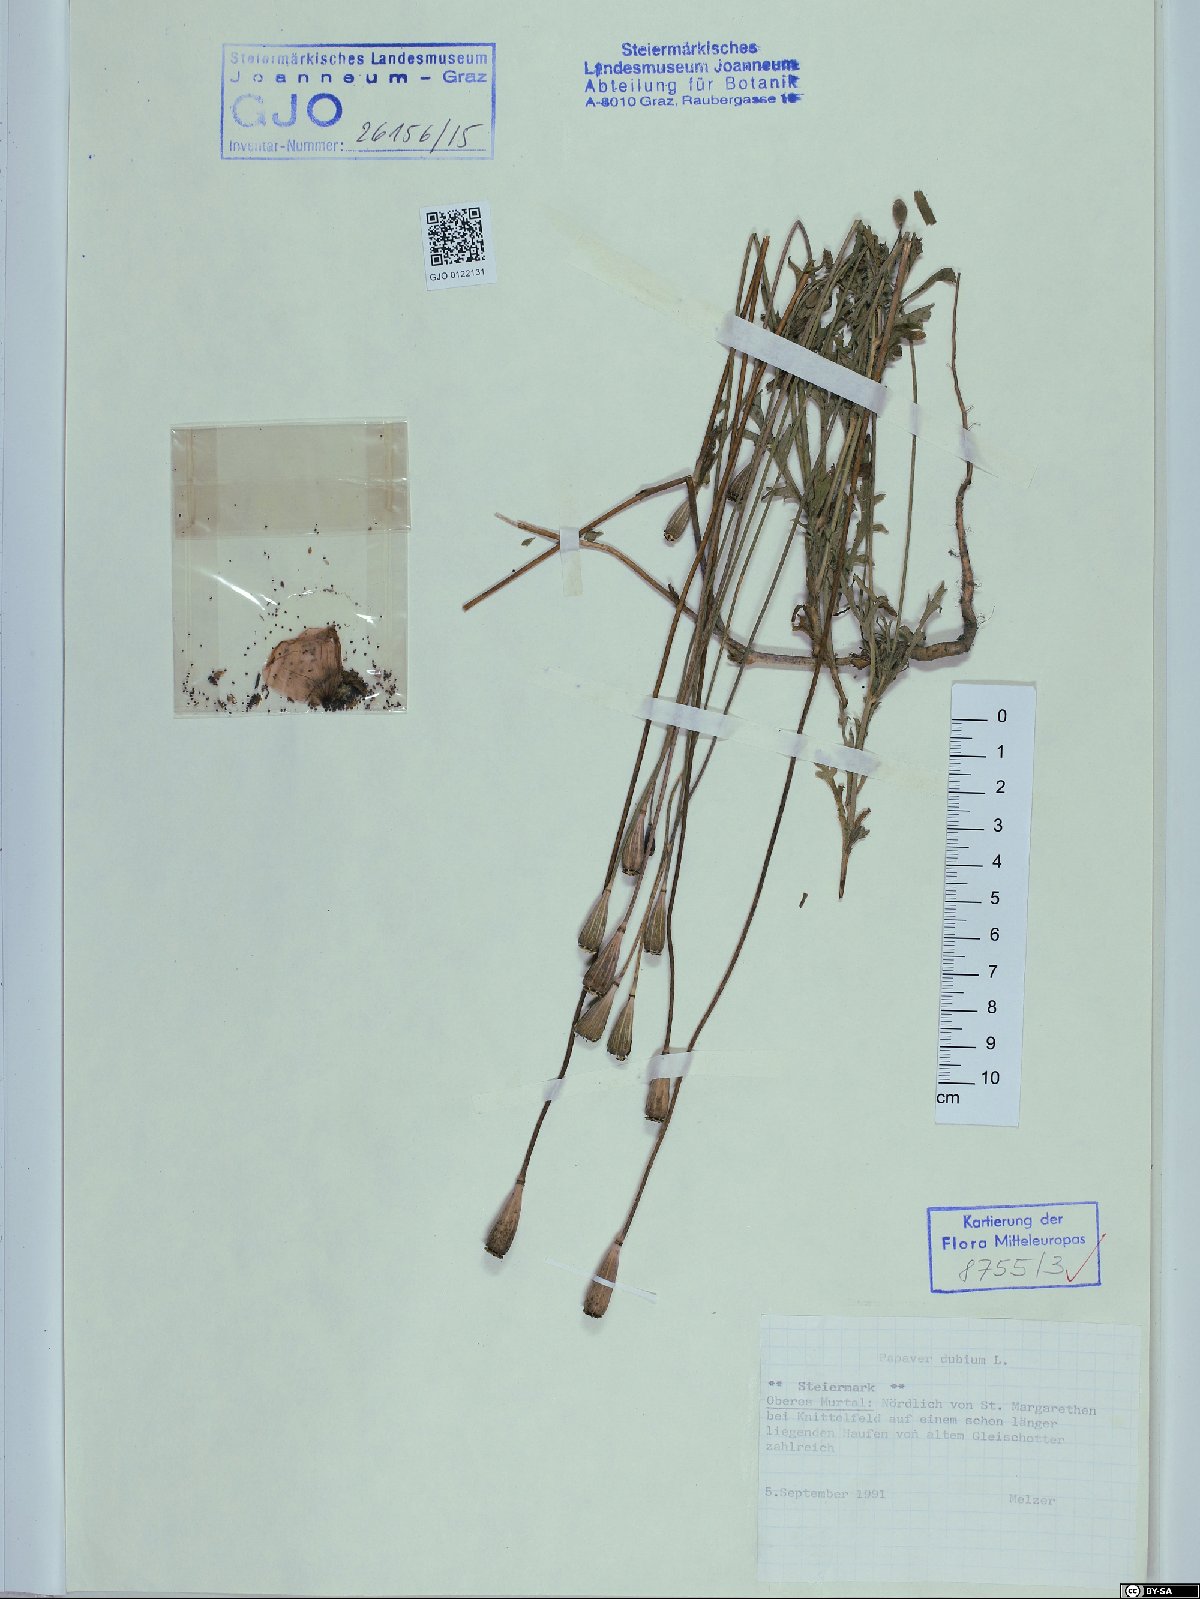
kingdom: Plantae
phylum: Tracheophyta
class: Magnoliopsida
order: Ranunculales
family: Papaveraceae
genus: Papaver
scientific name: Papaver dubium
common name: Long-headed poppy
